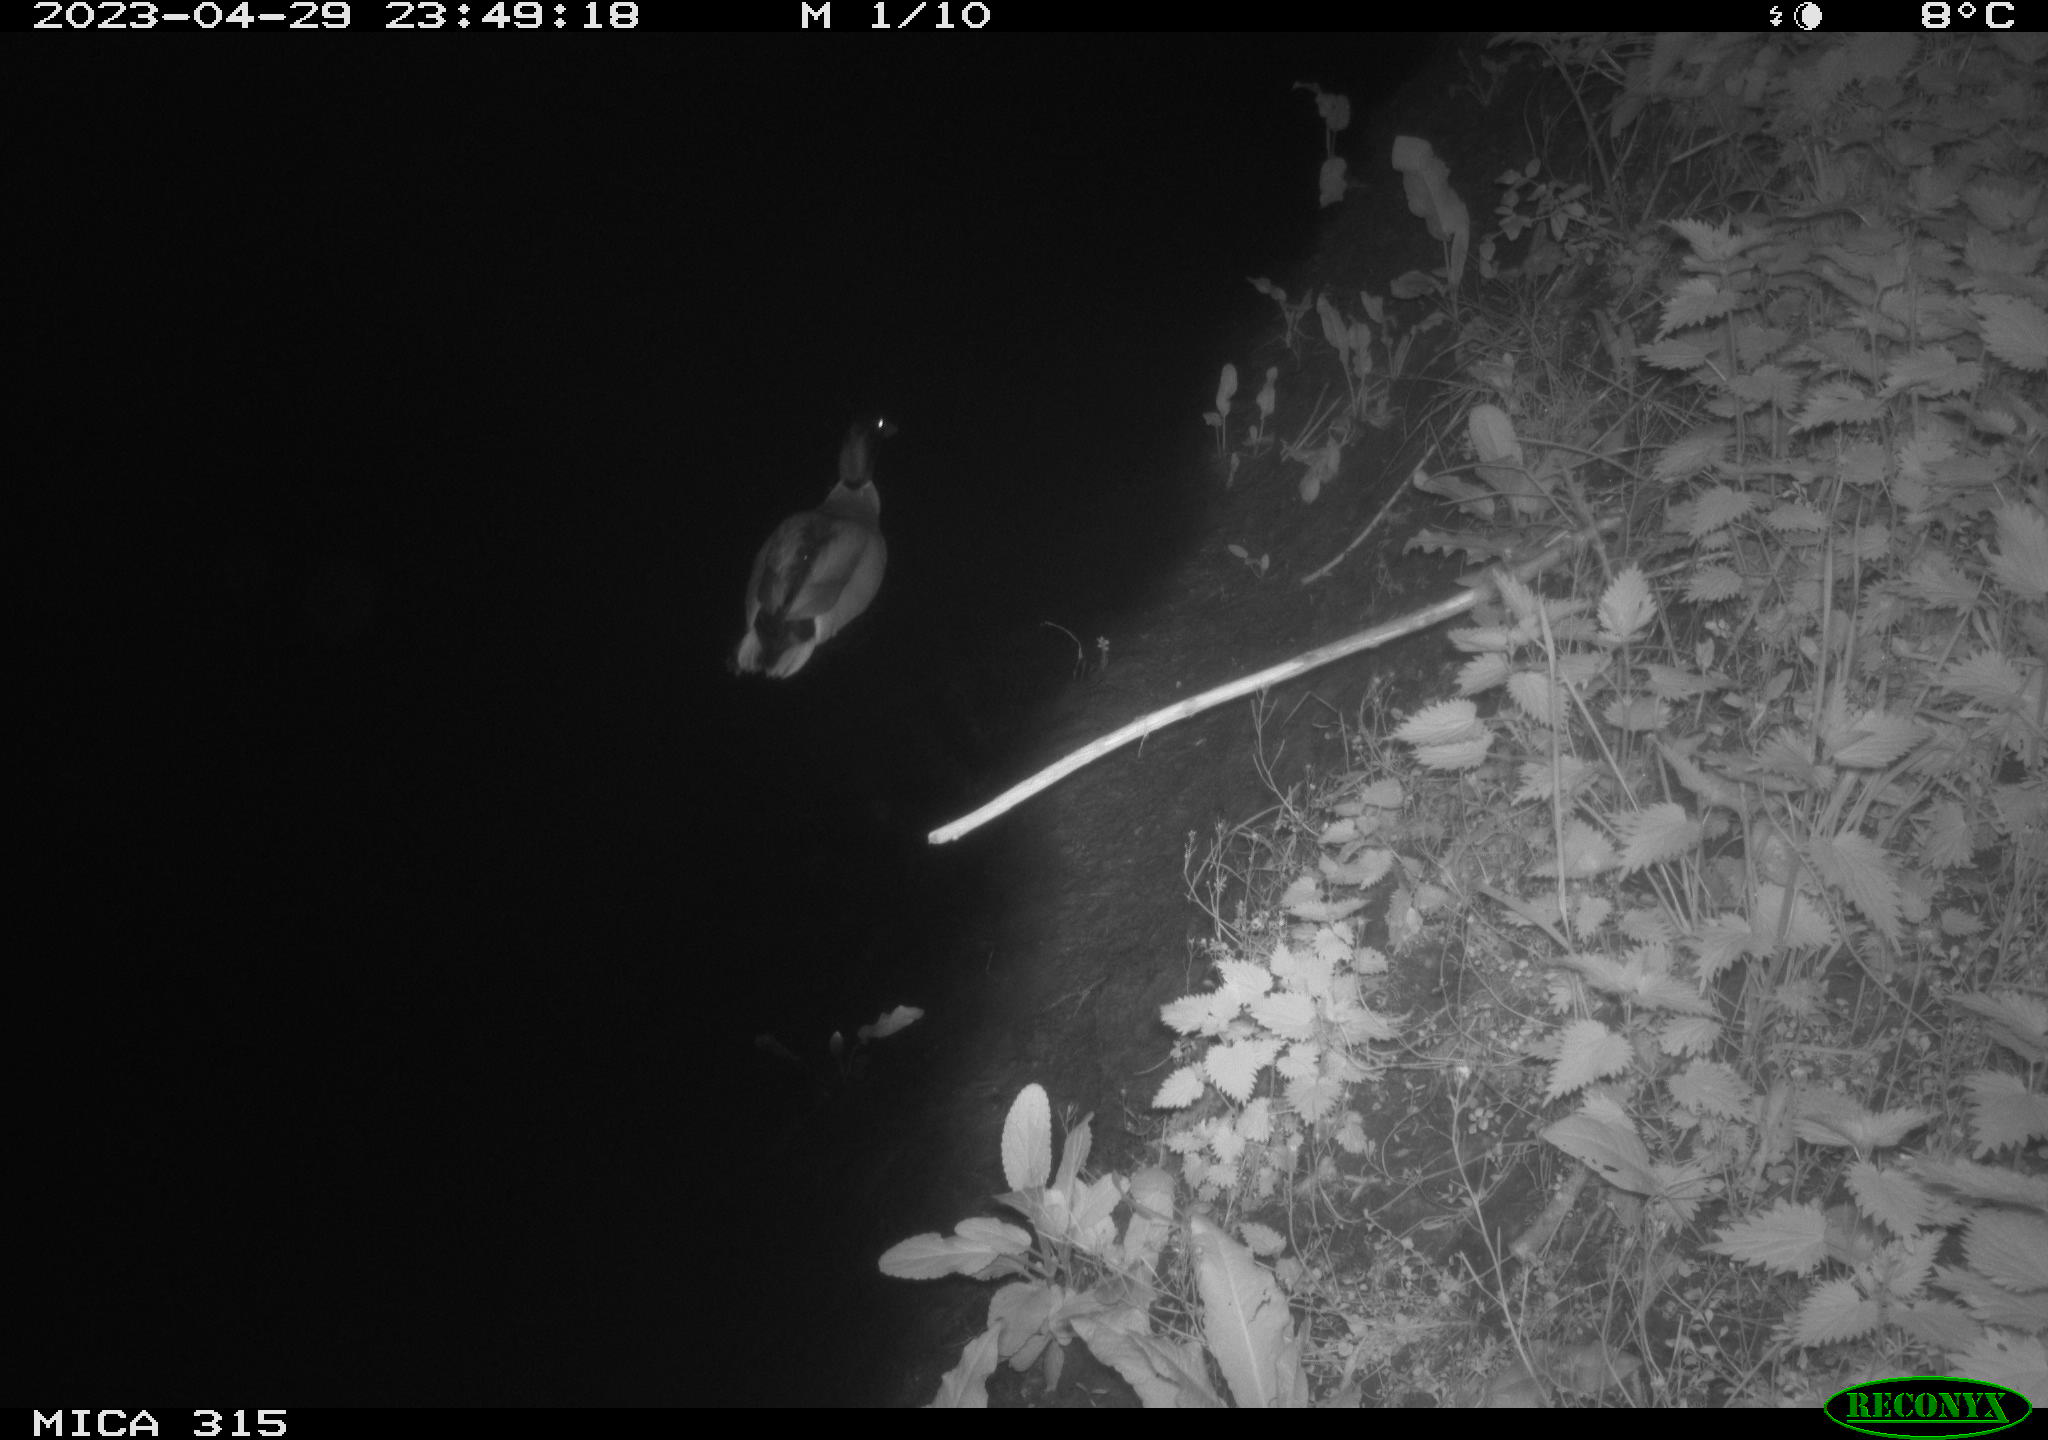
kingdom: Animalia
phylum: Chordata
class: Aves
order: Anseriformes
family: Anatidae
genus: Anas
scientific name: Anas
